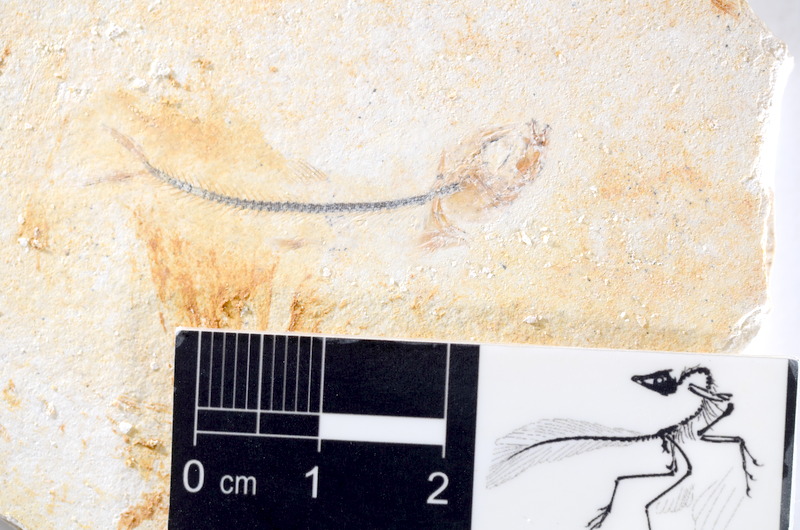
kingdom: Animalia
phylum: Chordata
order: Salmoniformes
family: Orthogonikleithridae
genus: Orthogonikleithrus
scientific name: Orthogonikleithrus hoelli
